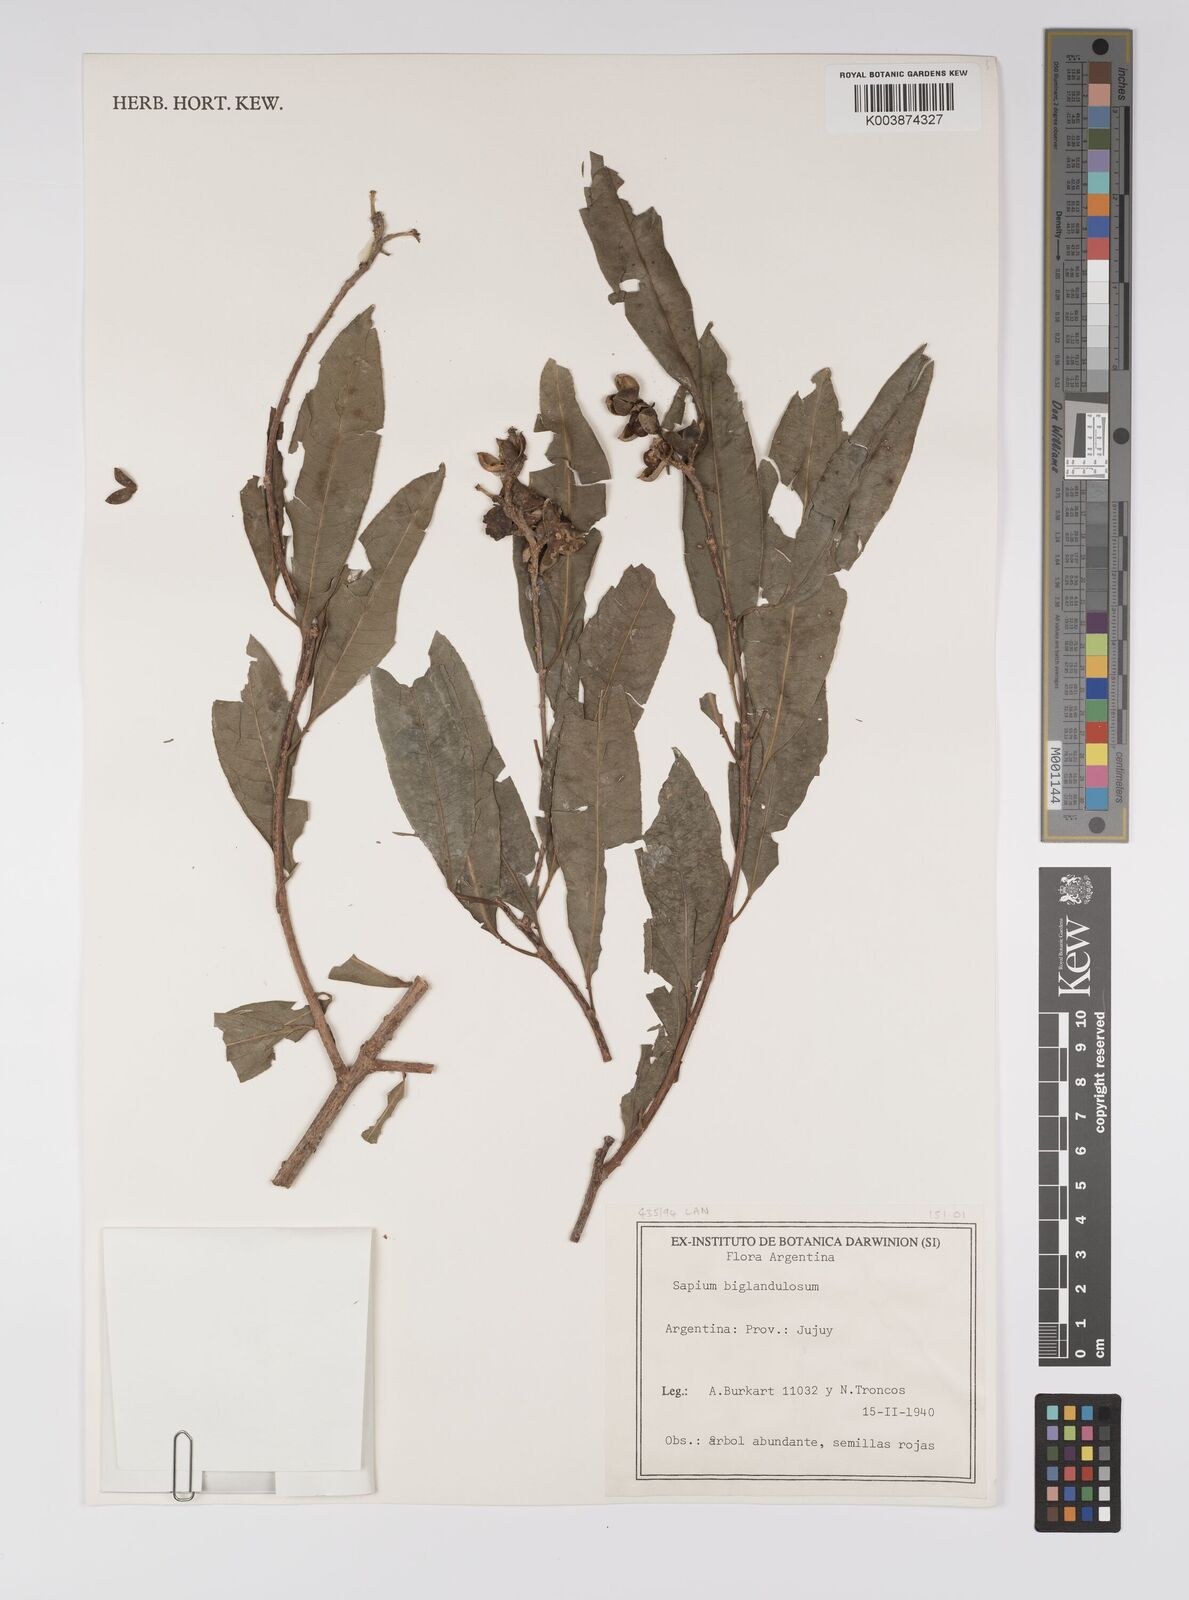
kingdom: Plantae
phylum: Tracheophyta
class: Magnoliopsida
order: Malpighiales
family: Euphorbiaceae
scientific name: Euphorbiaceae
